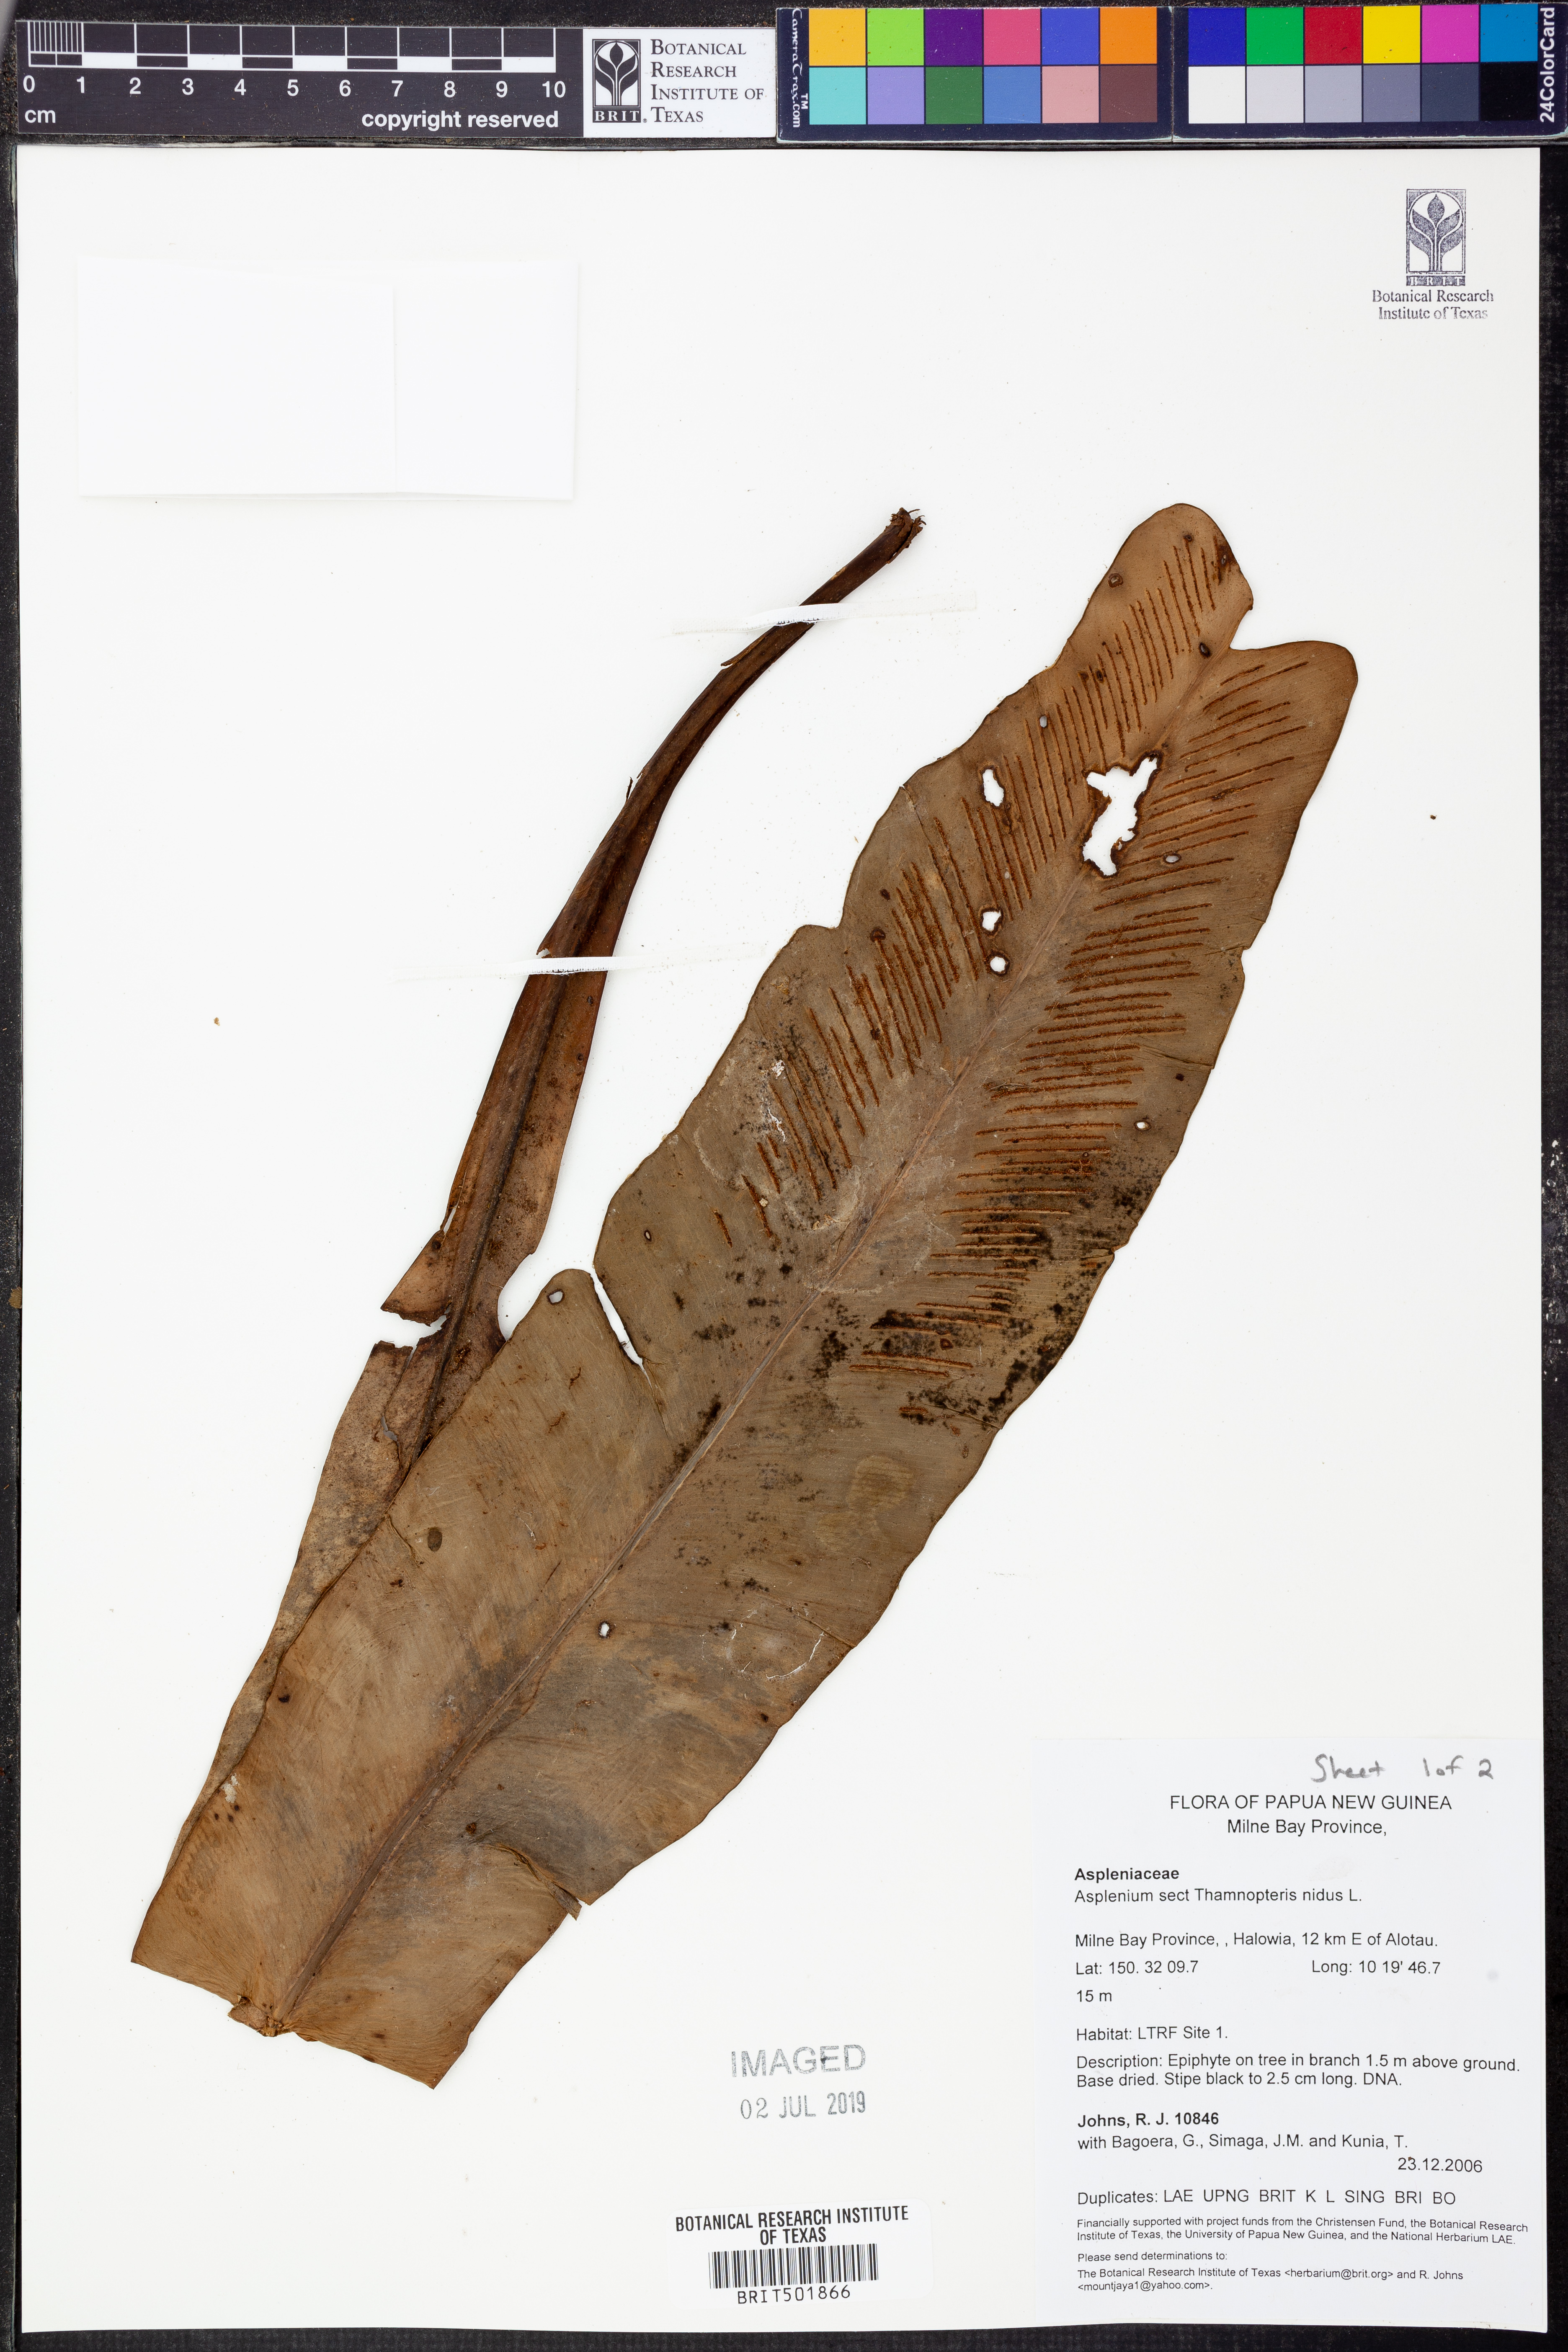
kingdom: Plantae
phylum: Tracheophyta
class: Polypodiopsida
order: Polypodiales
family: Aspleniaceae
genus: Asplenium
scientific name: Asplenium nidus
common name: Bird's-nest fern
